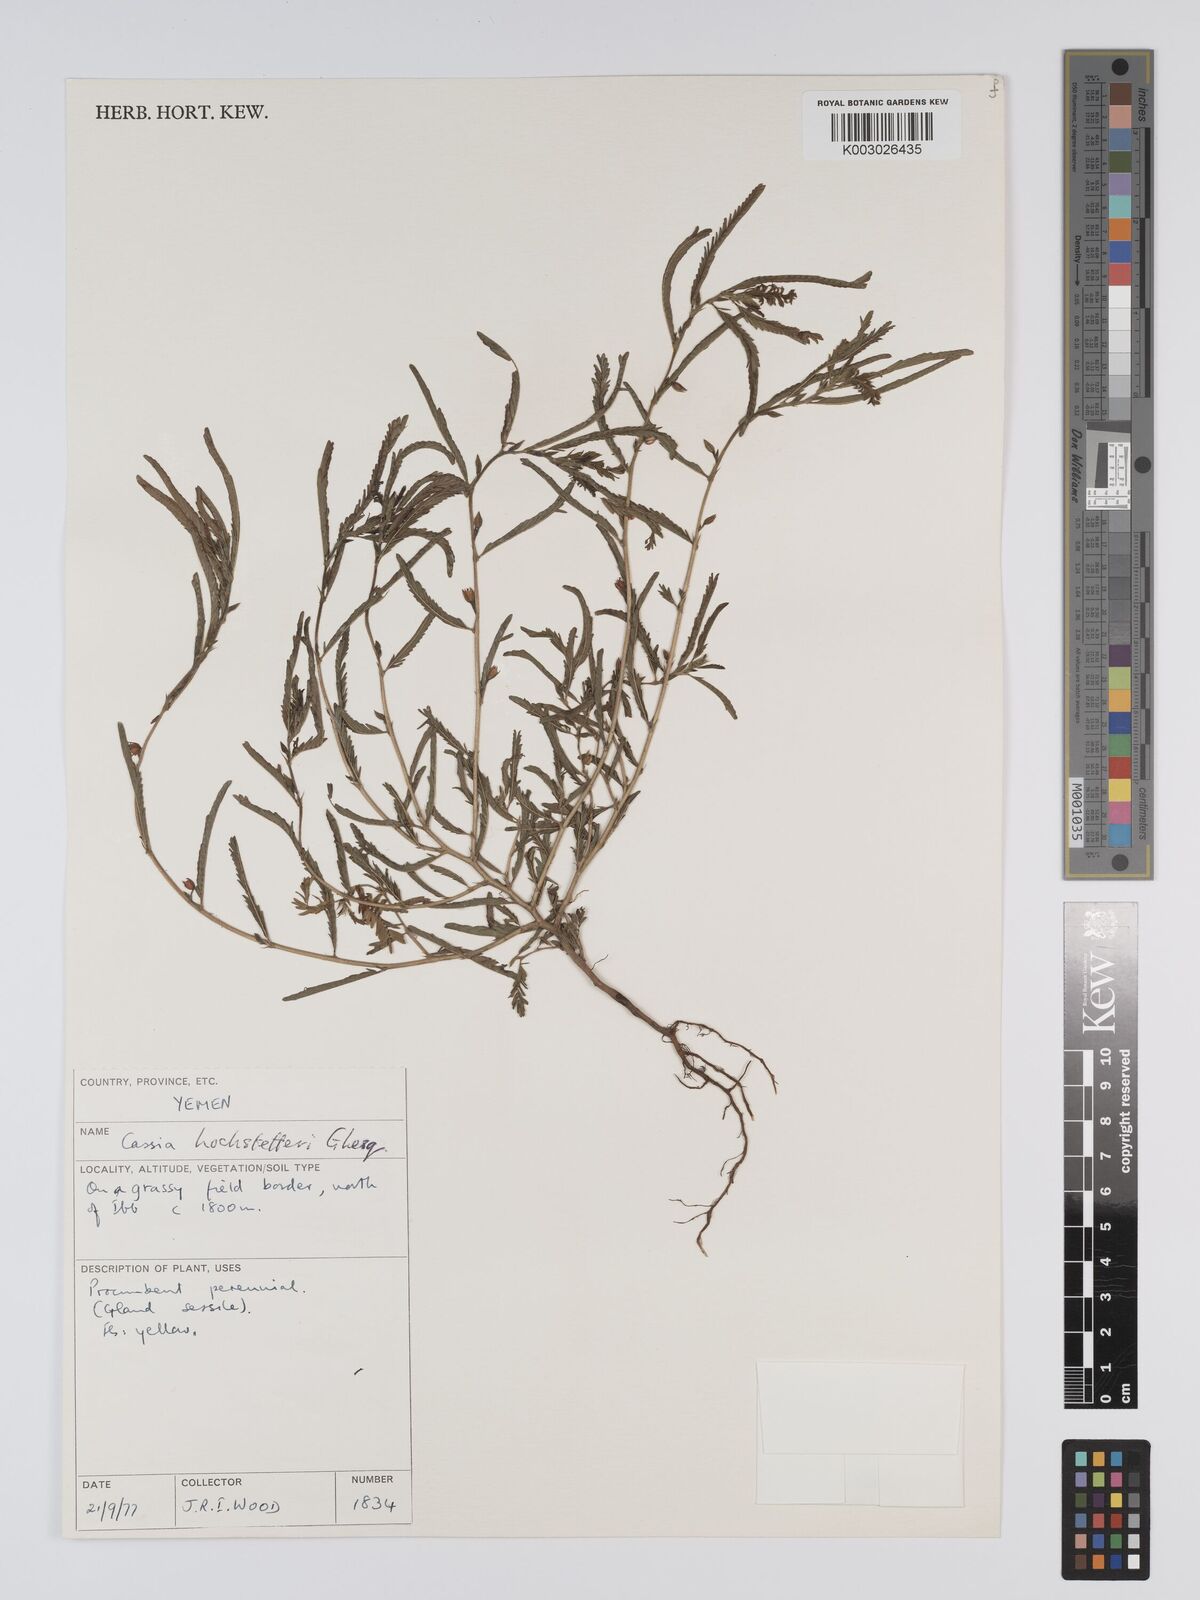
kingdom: Plantae
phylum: Tracheophyta
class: Magnoliopsida
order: Fabales
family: Fabaceae
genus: Chamaecrista
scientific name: Chamaecrista nomame
